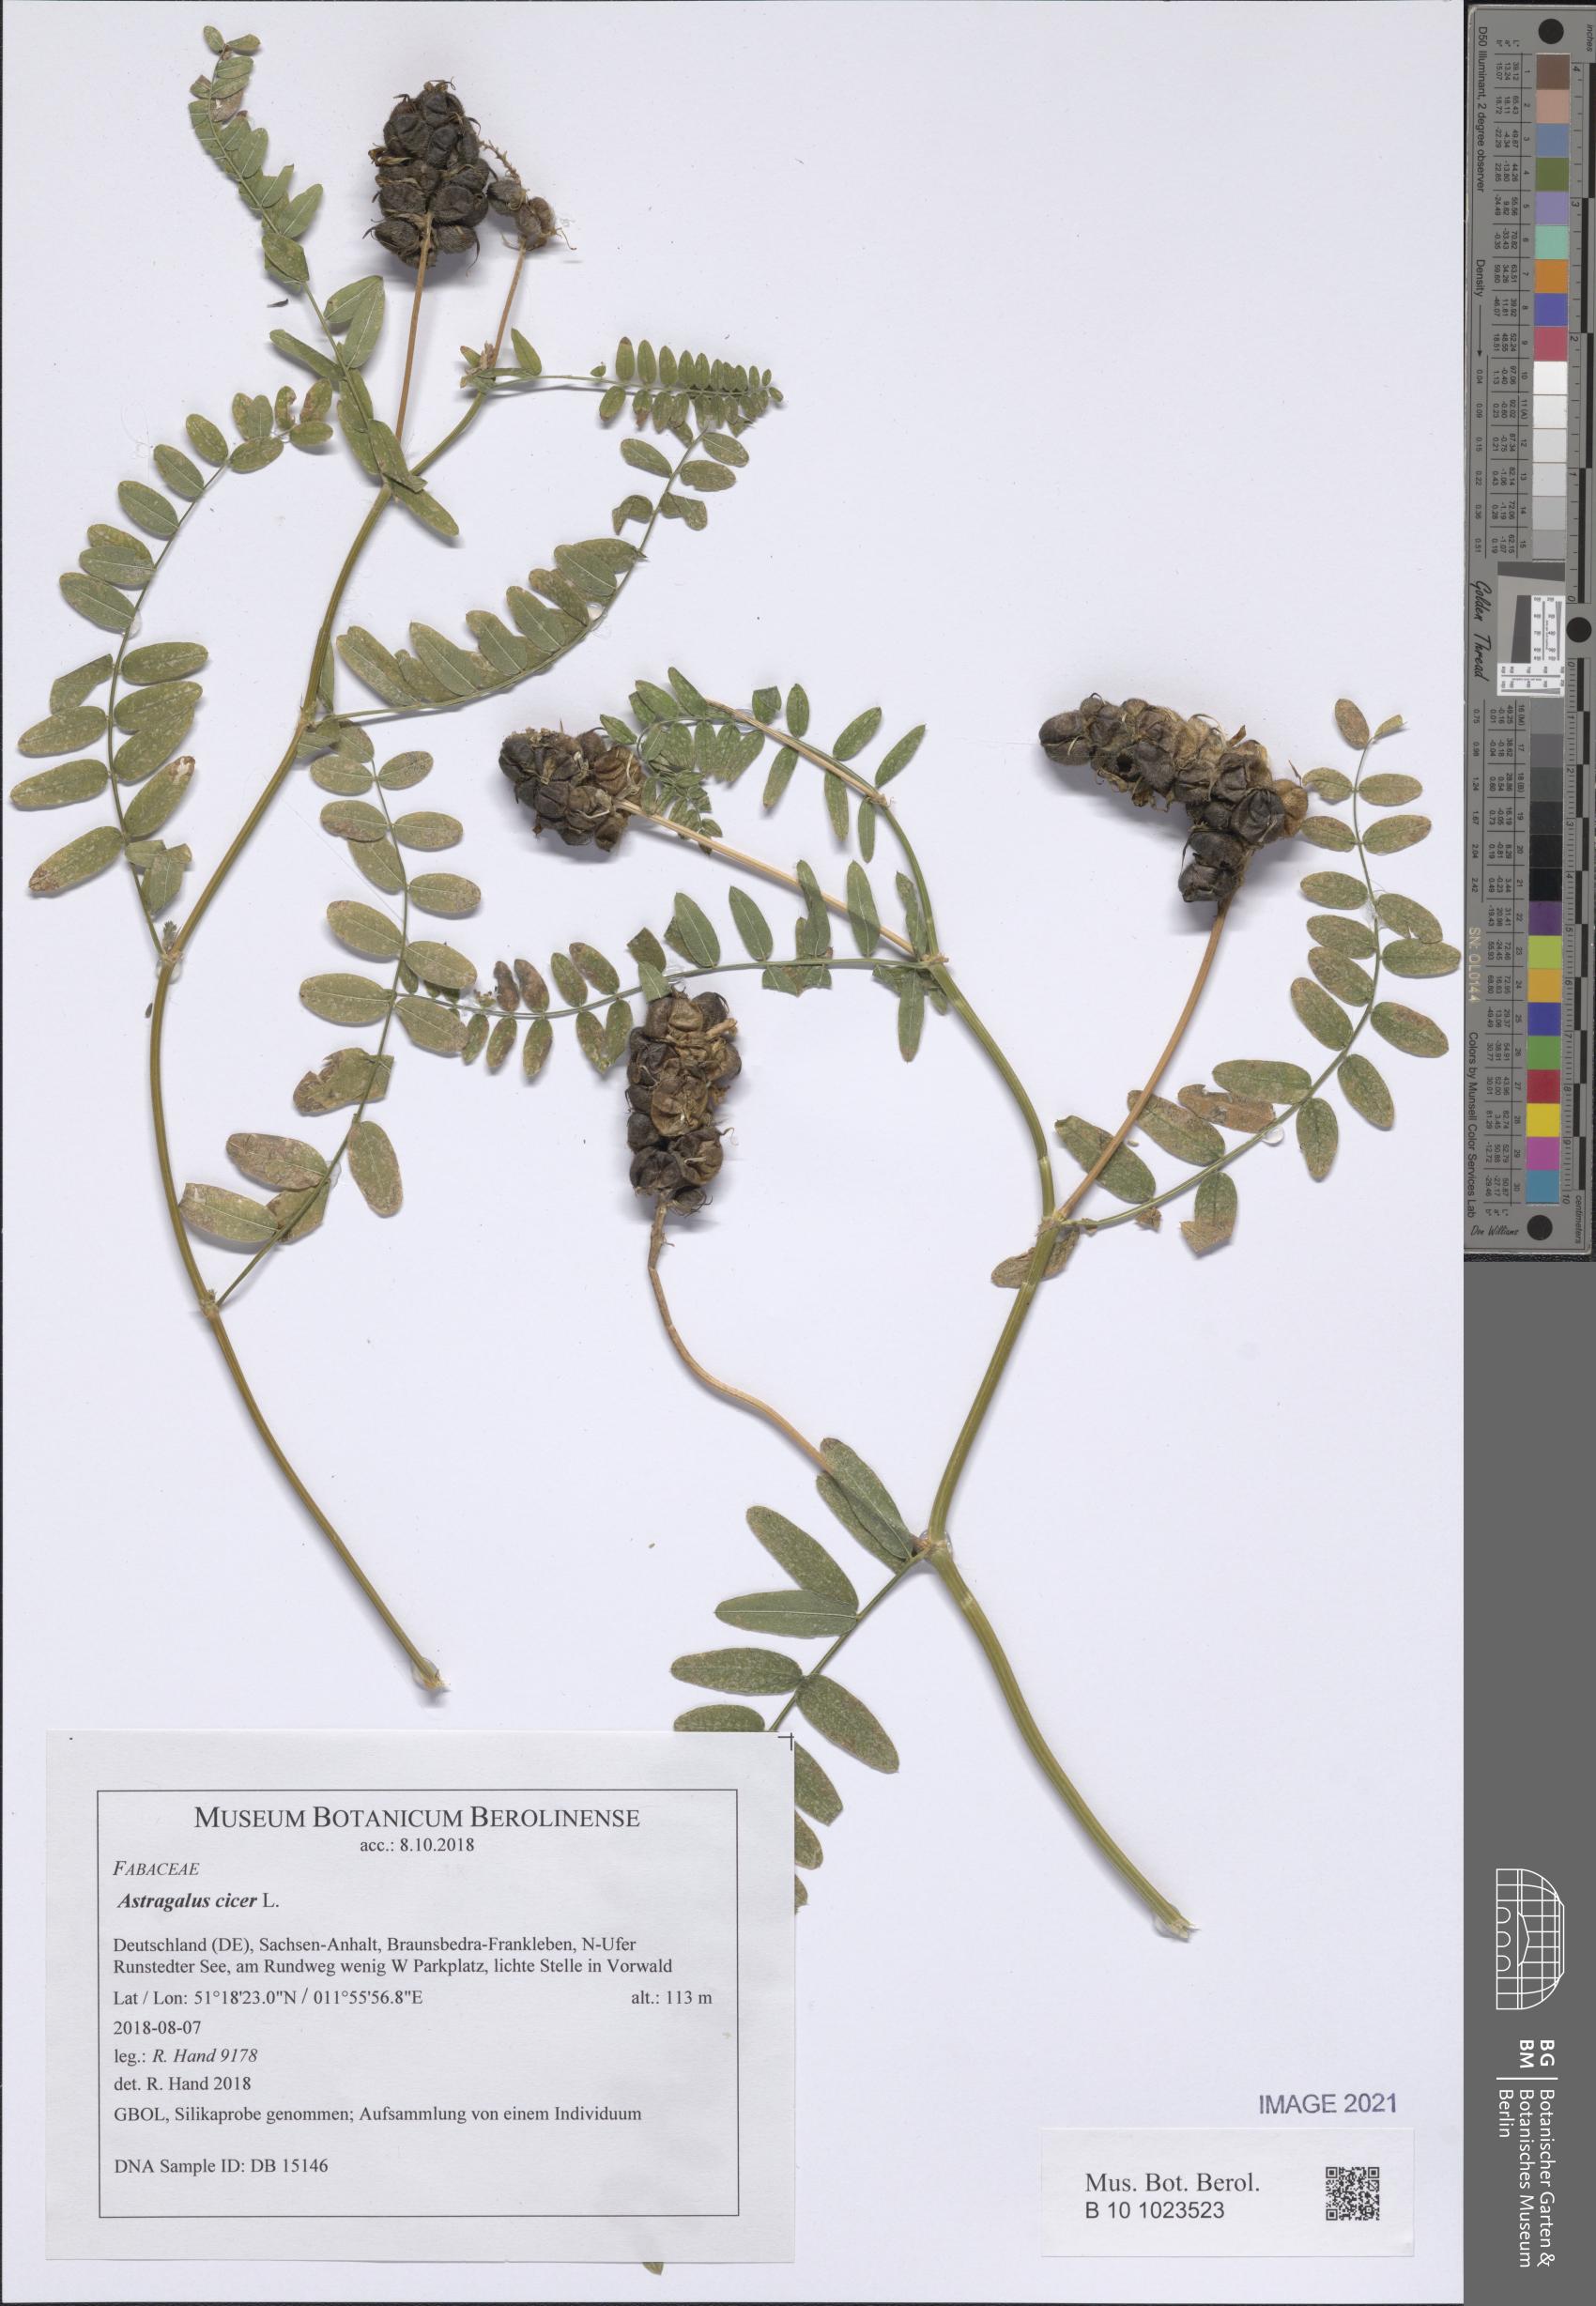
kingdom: Plantae
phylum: Tracheophyta
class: Magnoliopsida
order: Fabales
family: Fabaceae
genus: Astragalus
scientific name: Astragalus cicer
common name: Chick-pea milk-vetch
